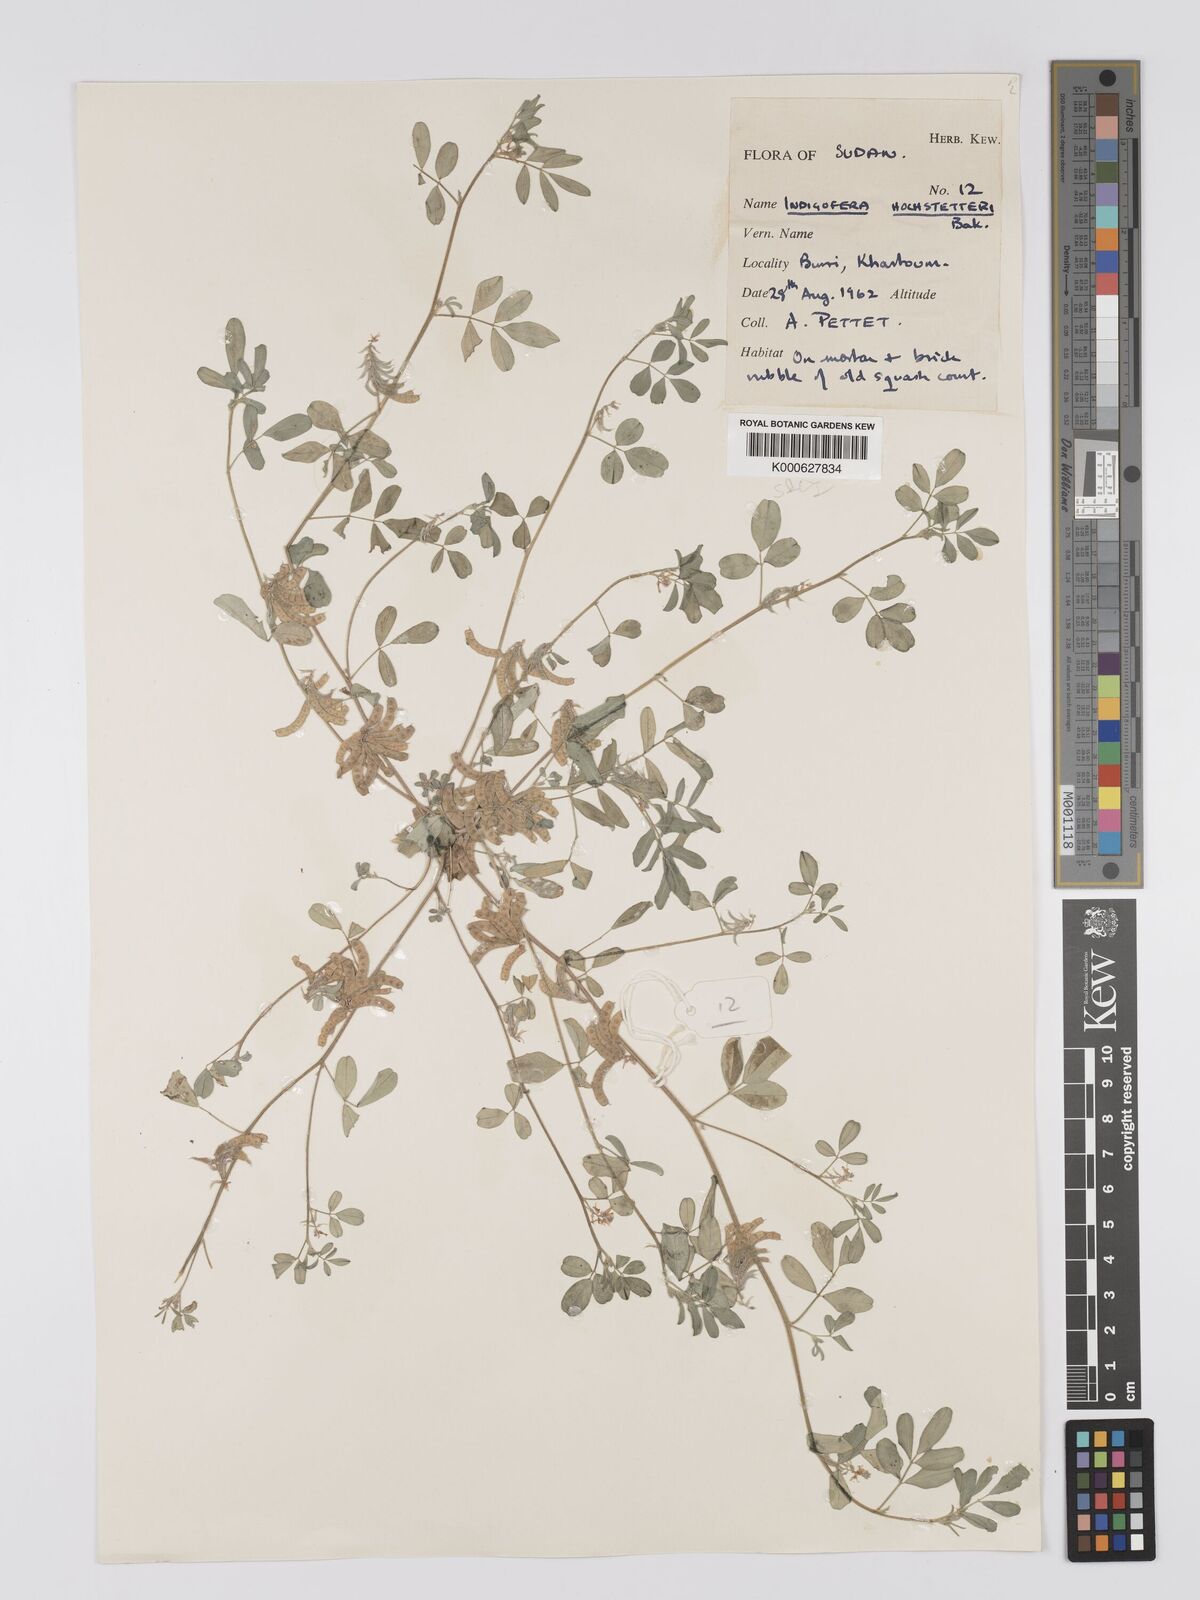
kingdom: Plantae
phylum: Tracheophyta
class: Magnoliopsida
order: Fabales
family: Fabaceae
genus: Indigofera
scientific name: Indigofera hochstetteri
